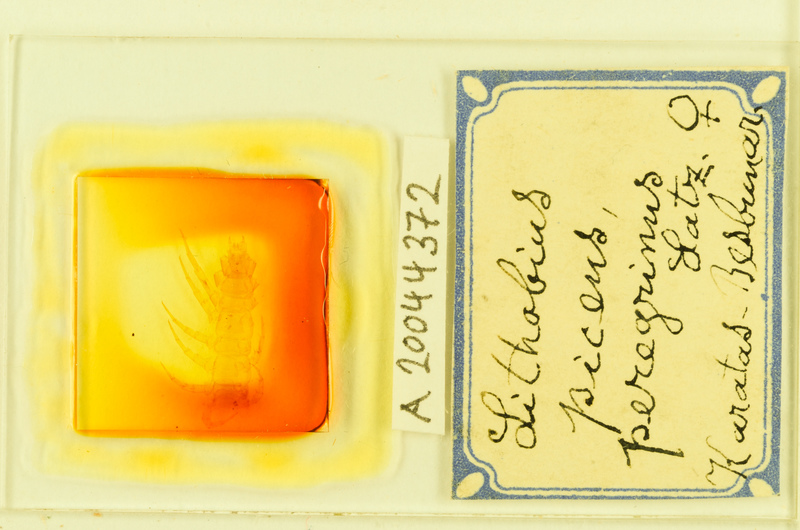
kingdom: Animalia
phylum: Arthropoda
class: Chilopoda
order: Lithobiomorpha
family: Lithobiidae
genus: Lithobius
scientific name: Lithobius piceus
